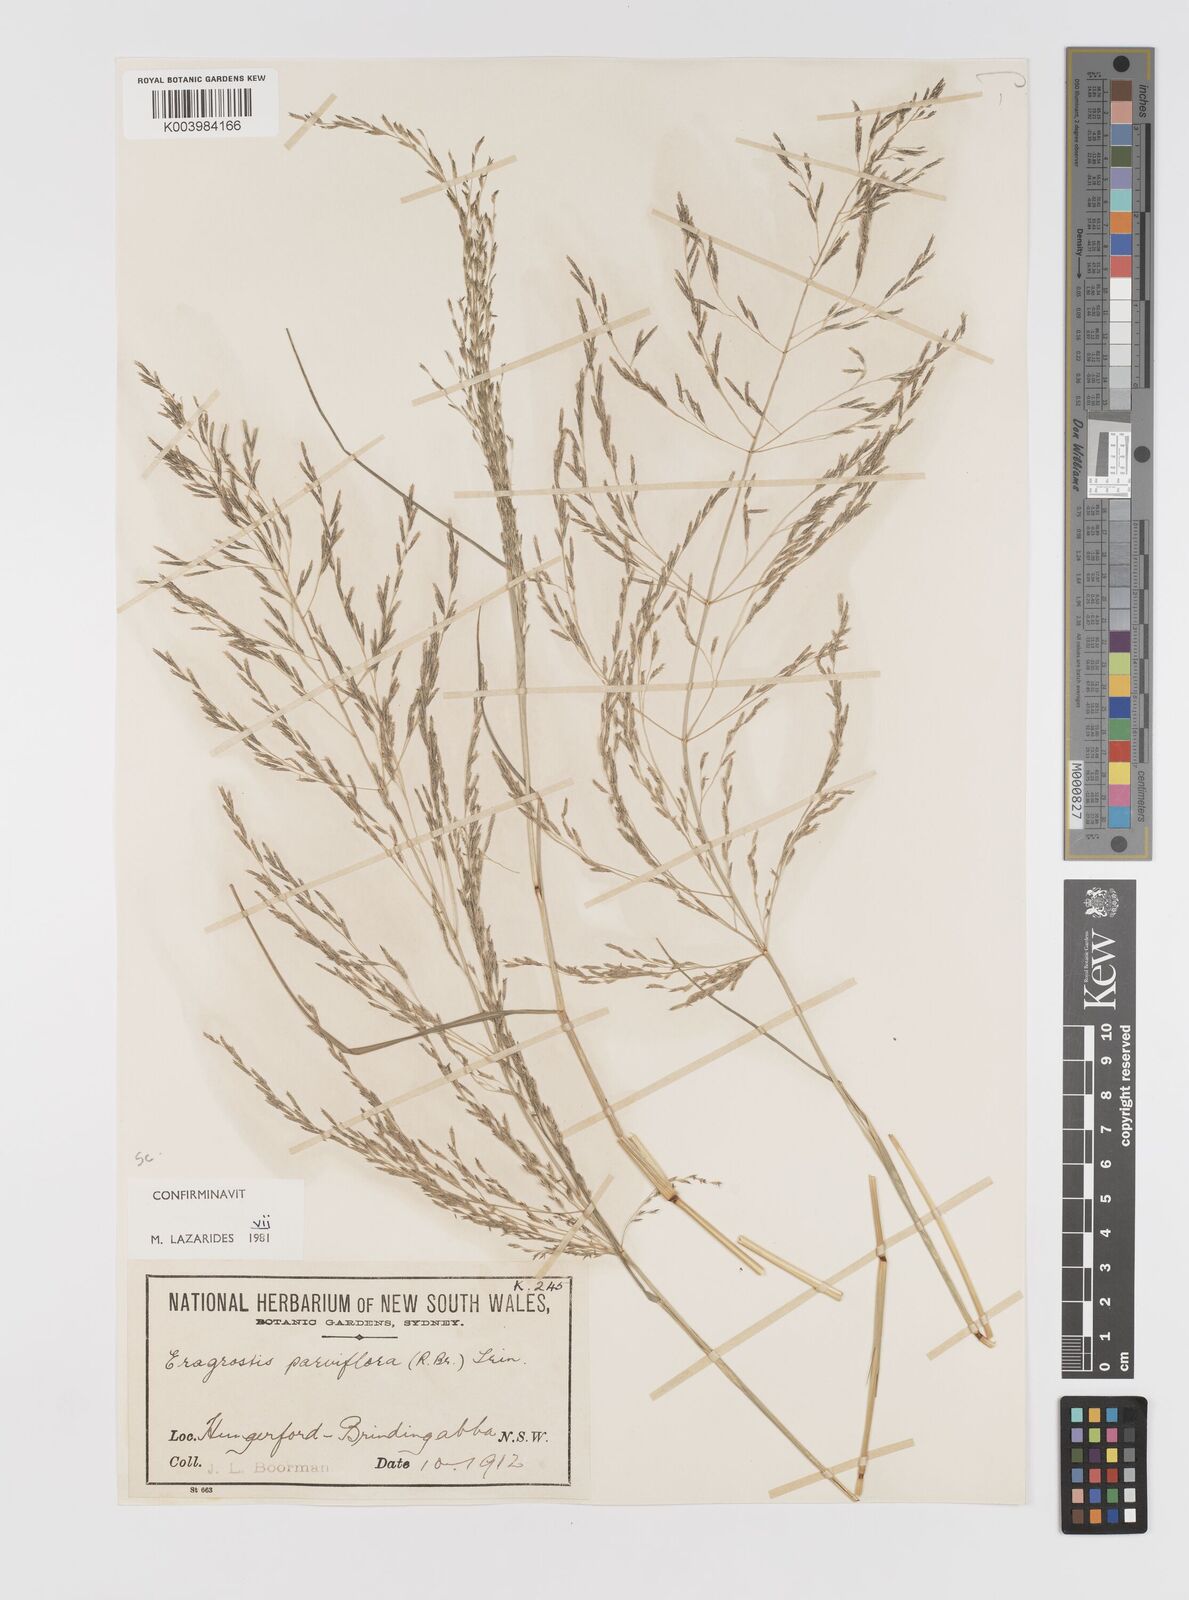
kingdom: Plantae
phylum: Tracheophyta
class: Liliopsida
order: Poales
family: Poaceae
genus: Eragrostis
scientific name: Eragrostis parviflora
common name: Weeping love-grass
